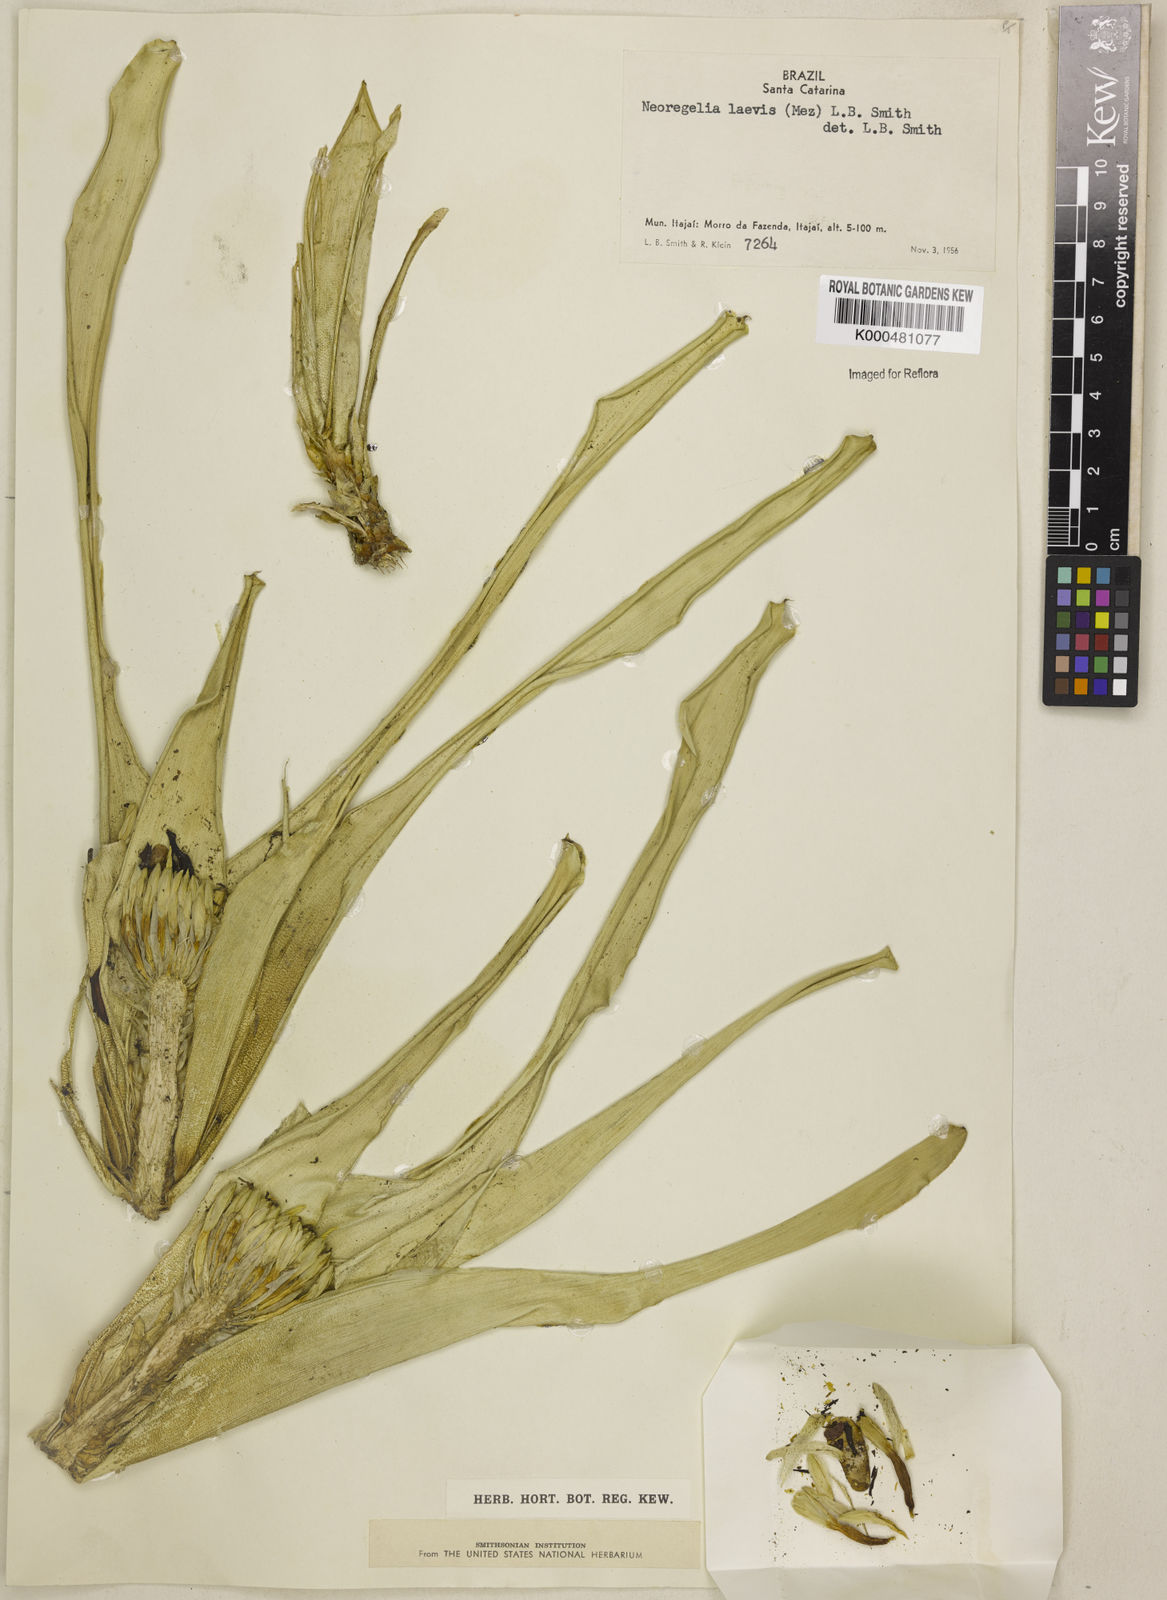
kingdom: Plantae
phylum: Tracheophyta
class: Liliopsida
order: Poales
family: Bromeliaceae
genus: Neoregelia
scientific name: Neoregelia laevis
